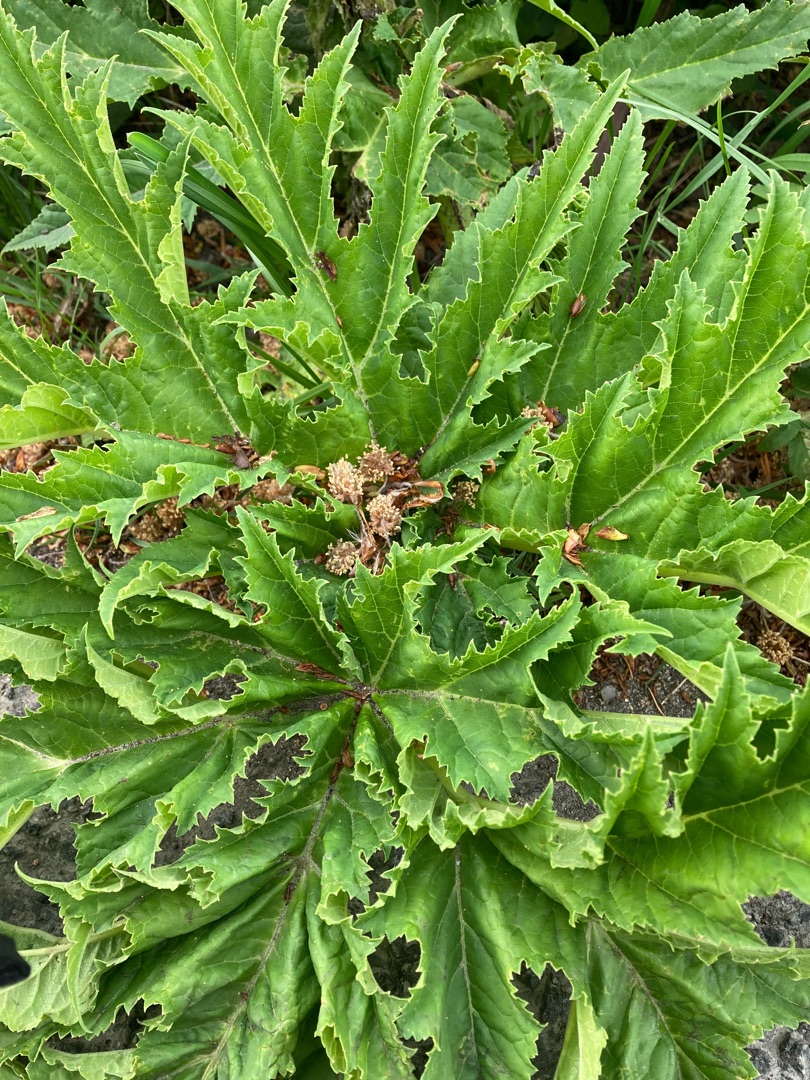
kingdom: Plantae
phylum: Tracheophyta
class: Magnoliopsida
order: Apiales
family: Apiaceae
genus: Heracleum
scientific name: Heracleum mantegazzianum
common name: Kæmpe-bjørneklo
